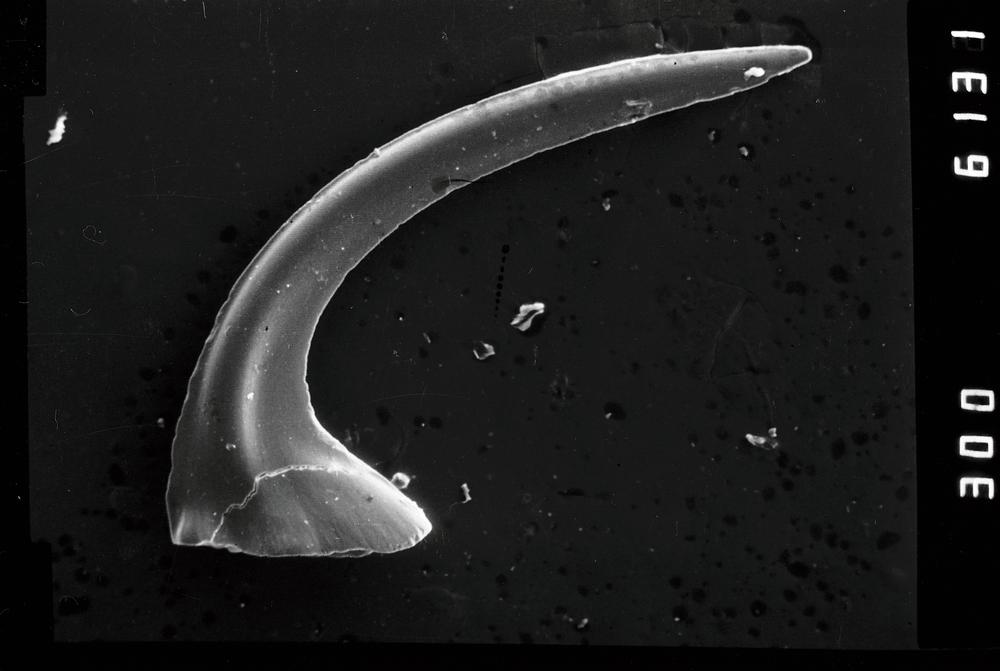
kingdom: Animalia
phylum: Chordata
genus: Paroistodus
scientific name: Paroistodus
